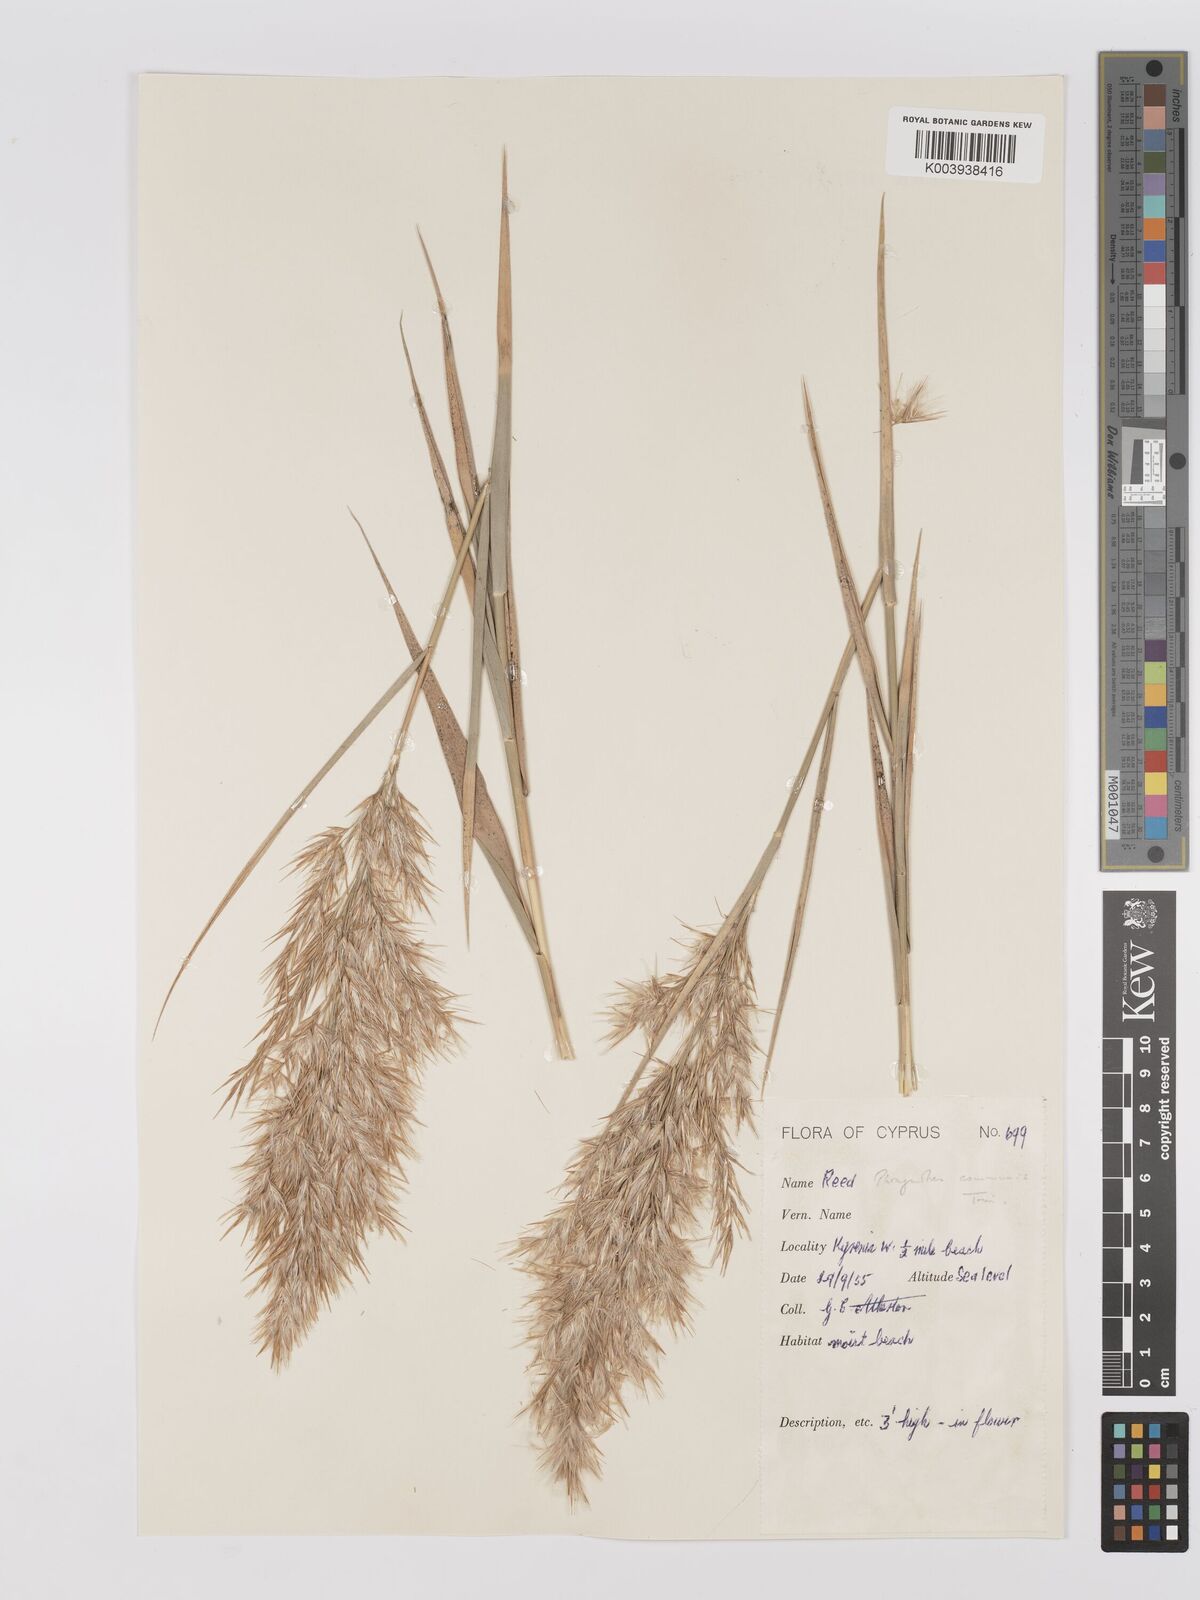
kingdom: Plantae
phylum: Tracheophyta
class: Liliopsida
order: Poales
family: Poaceae
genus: Phragmites
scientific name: Phragmites australis
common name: Common reed
